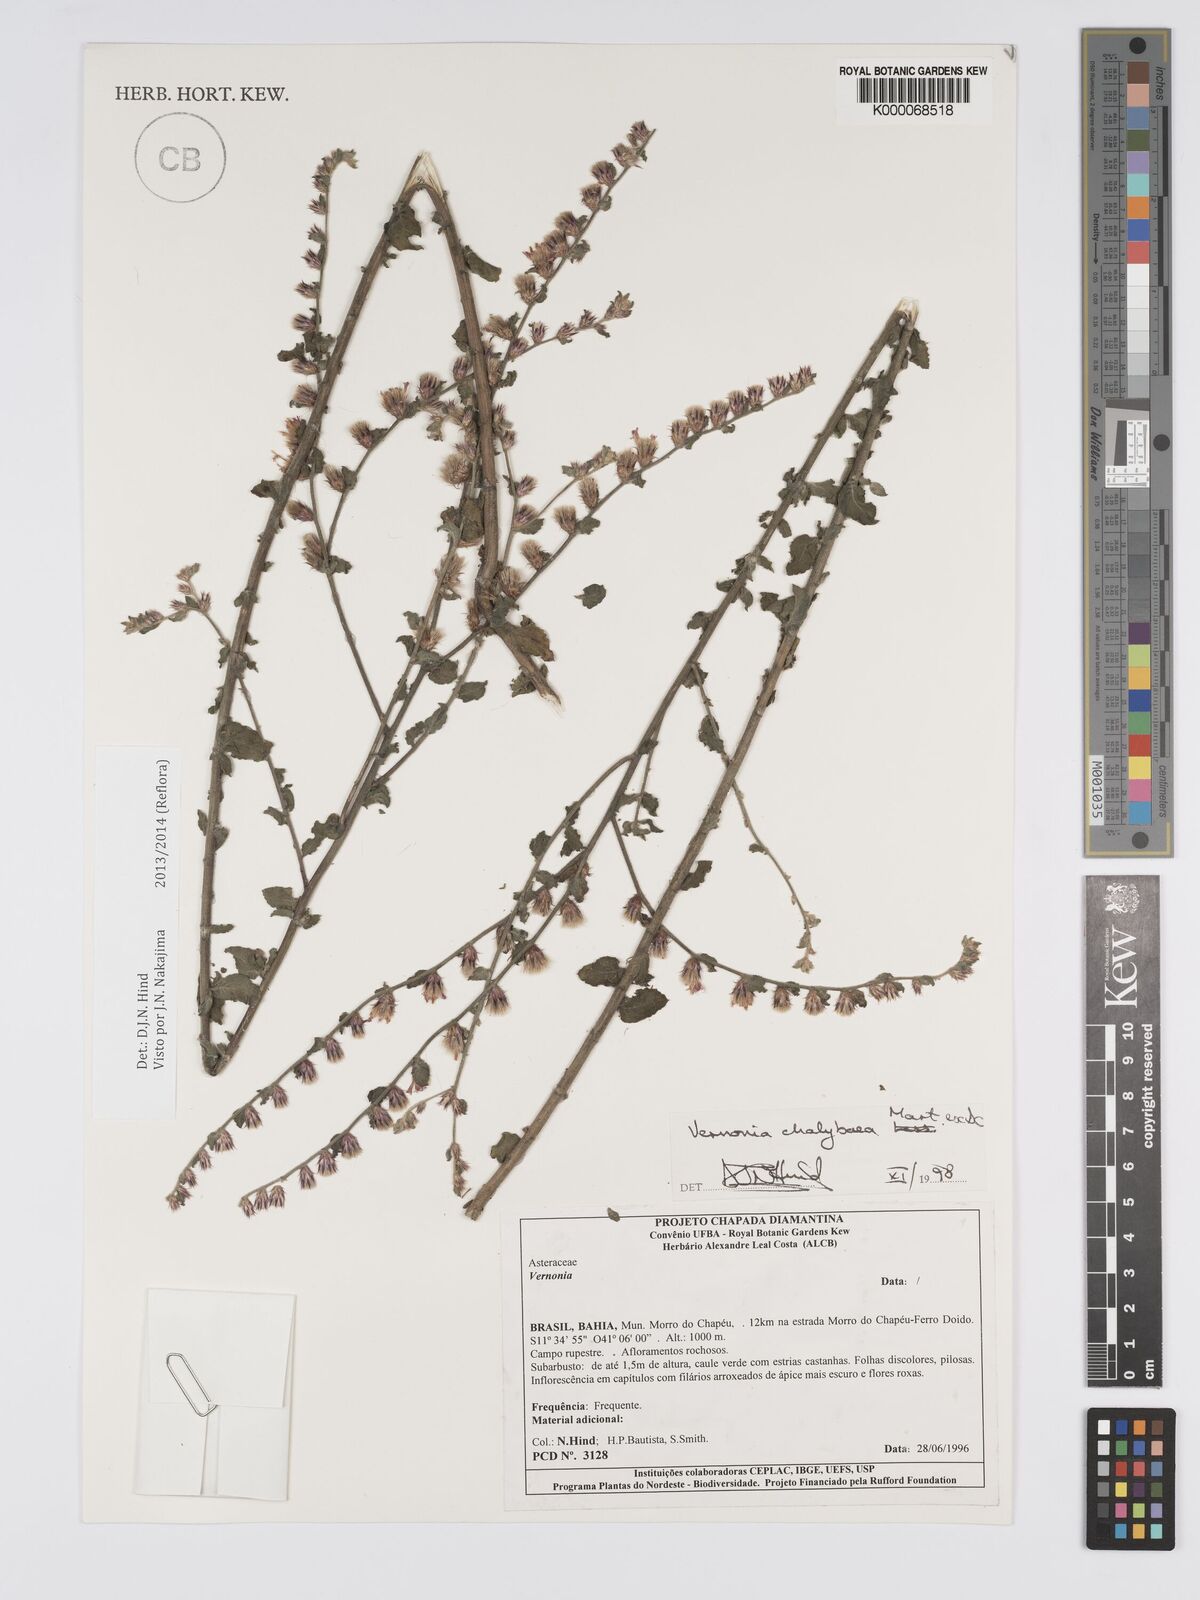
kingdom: Plantae
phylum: Tracheophyta
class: Magnoliopsida
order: Asterales
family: Asteraceae
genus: Lepidaploa
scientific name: Lepidaploa chalybaea
